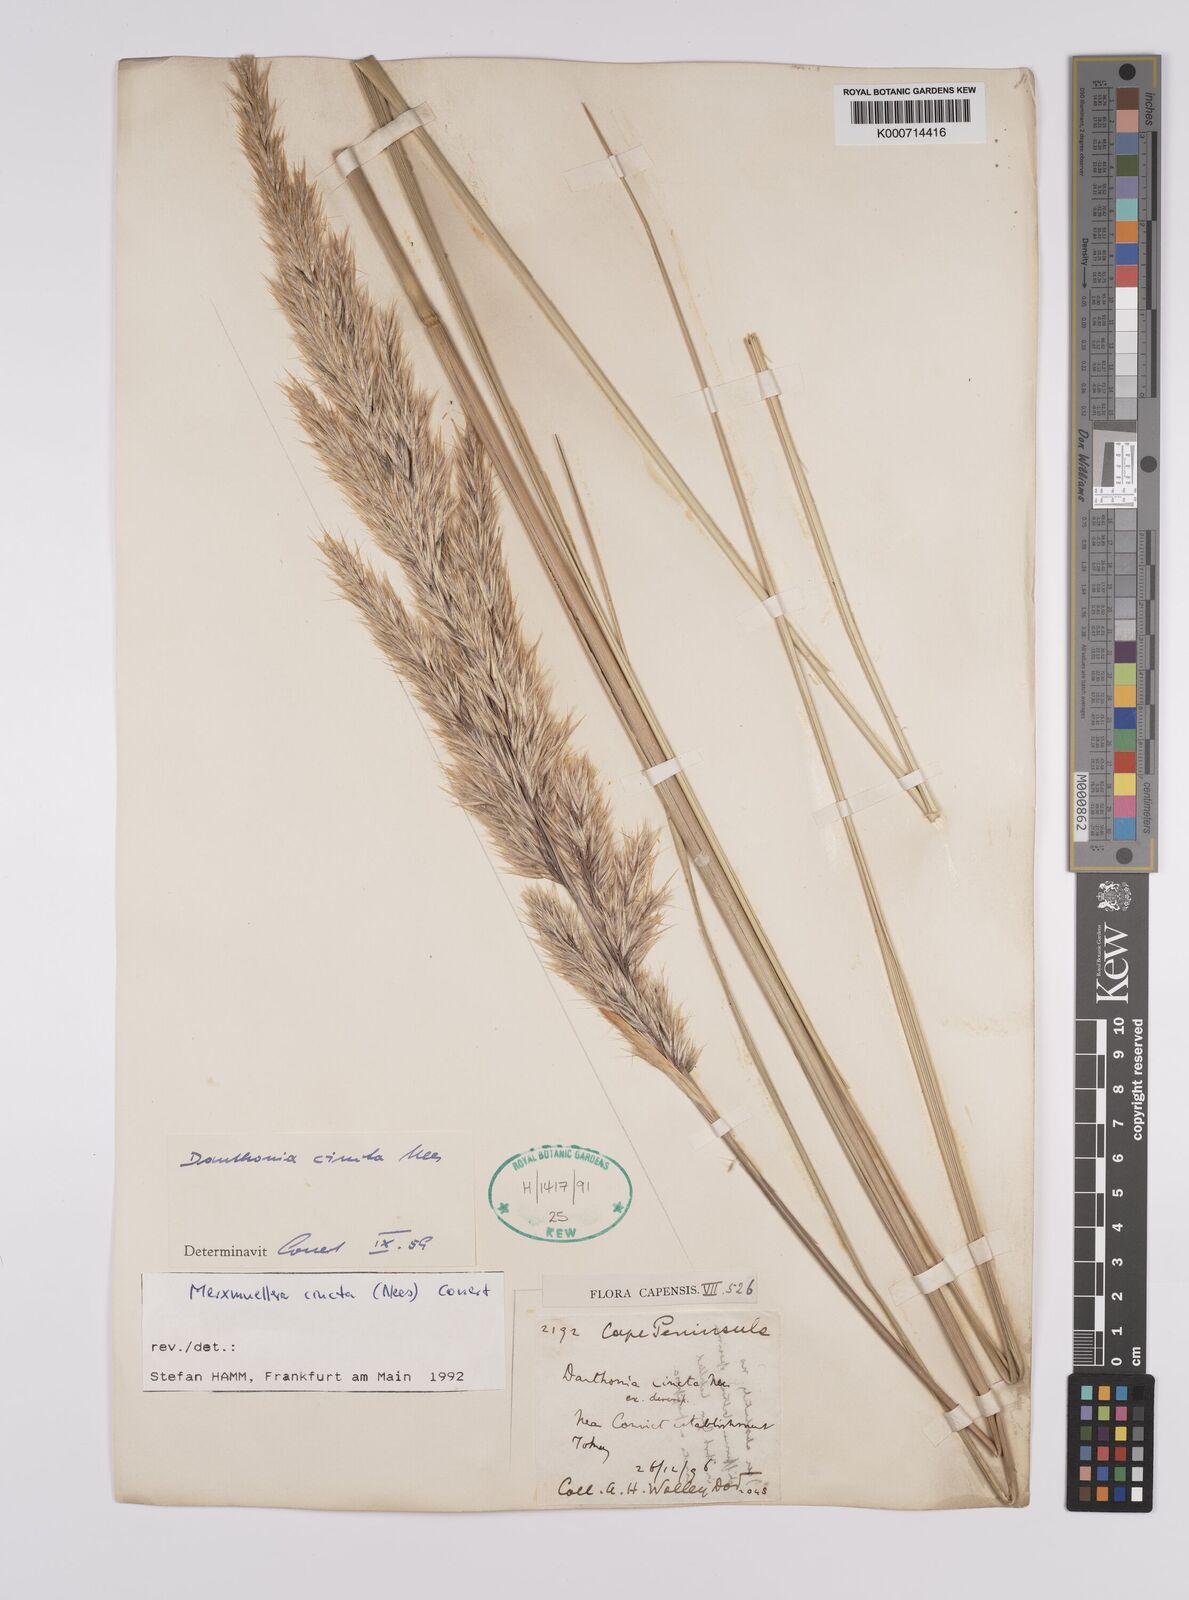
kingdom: Plantae
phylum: Tracheophyta
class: Liliopsida
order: Poales
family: Poaceae
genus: Rytidosperma
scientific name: Rytidosperma
